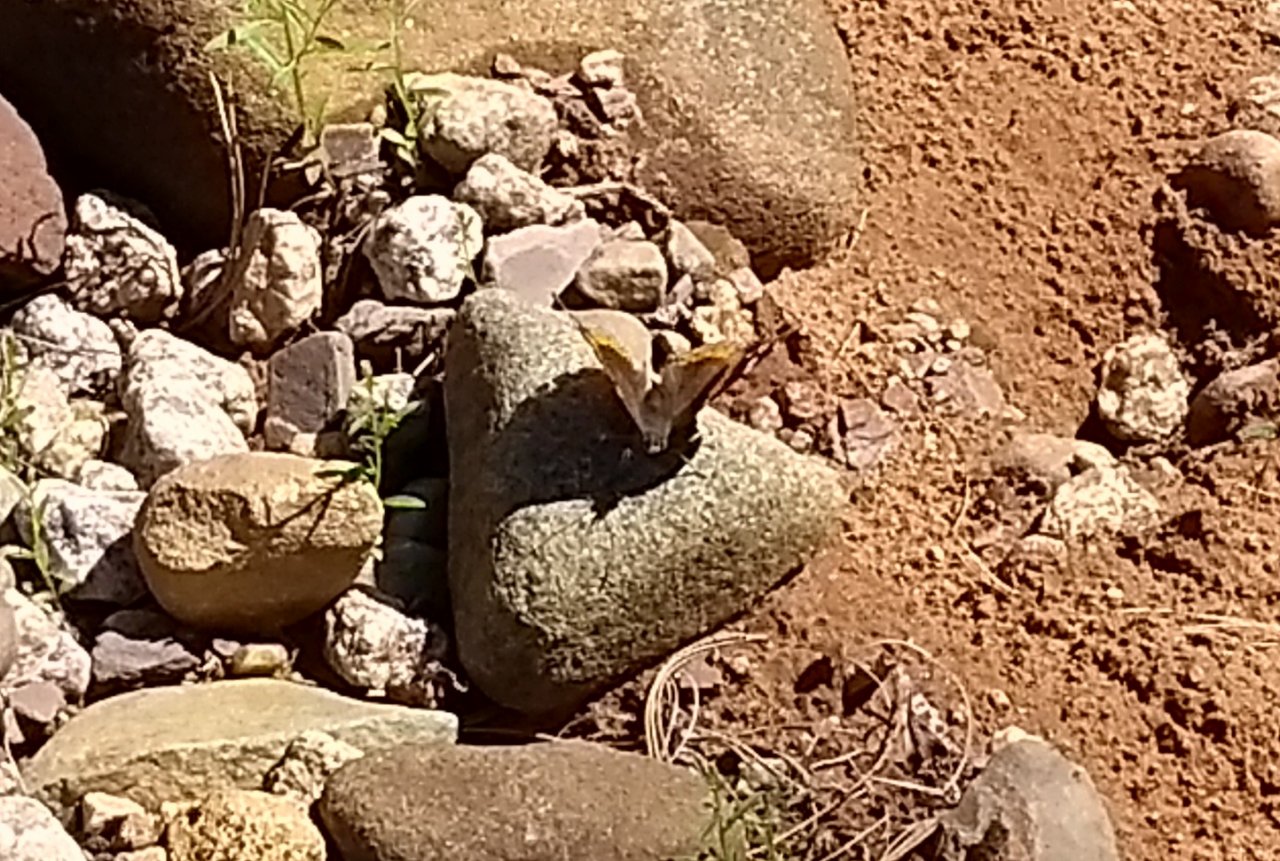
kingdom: Animalia
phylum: Arthropoda
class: Insecta
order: Lepidoptera
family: Nymphalidae
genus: Vanessa
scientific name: Vanessa atalanta
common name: Red Admiral
